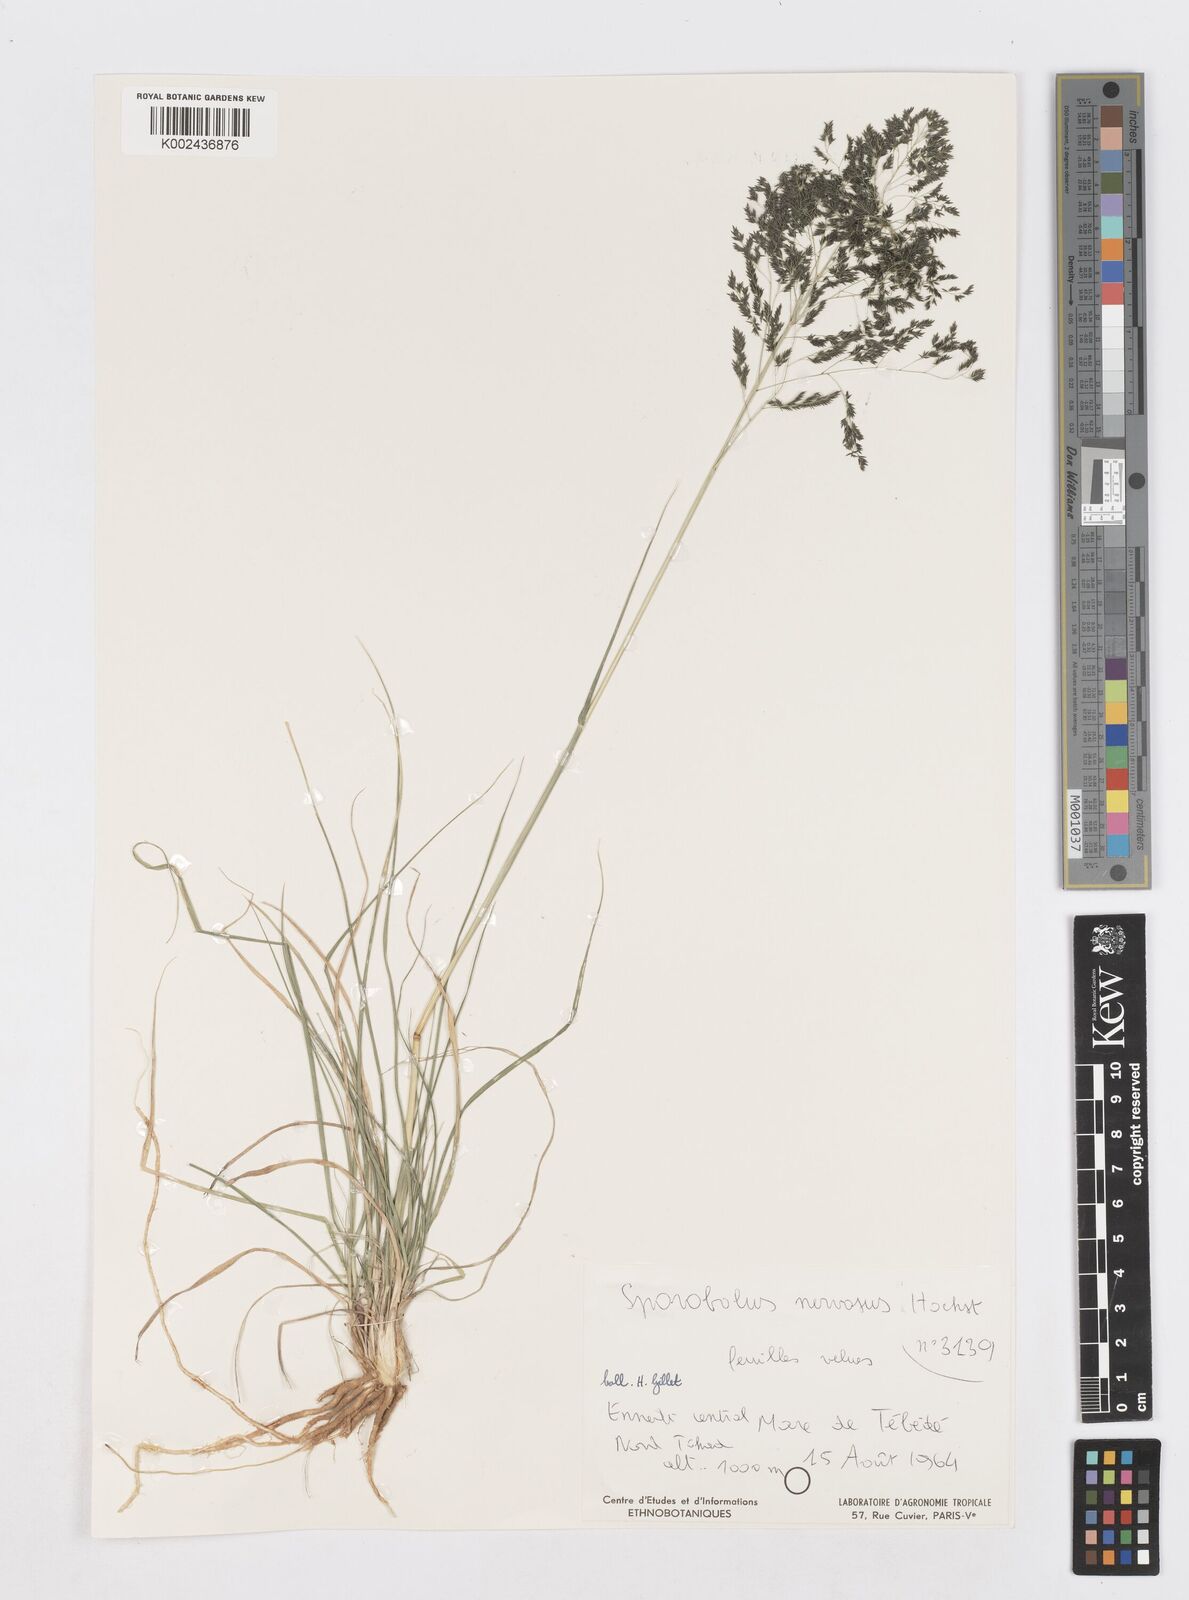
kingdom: Plantae
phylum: Tracheophyta
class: Liliopsida
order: Poales
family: Poaceae
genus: Sporobolus
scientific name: Sporobolus nervosus
